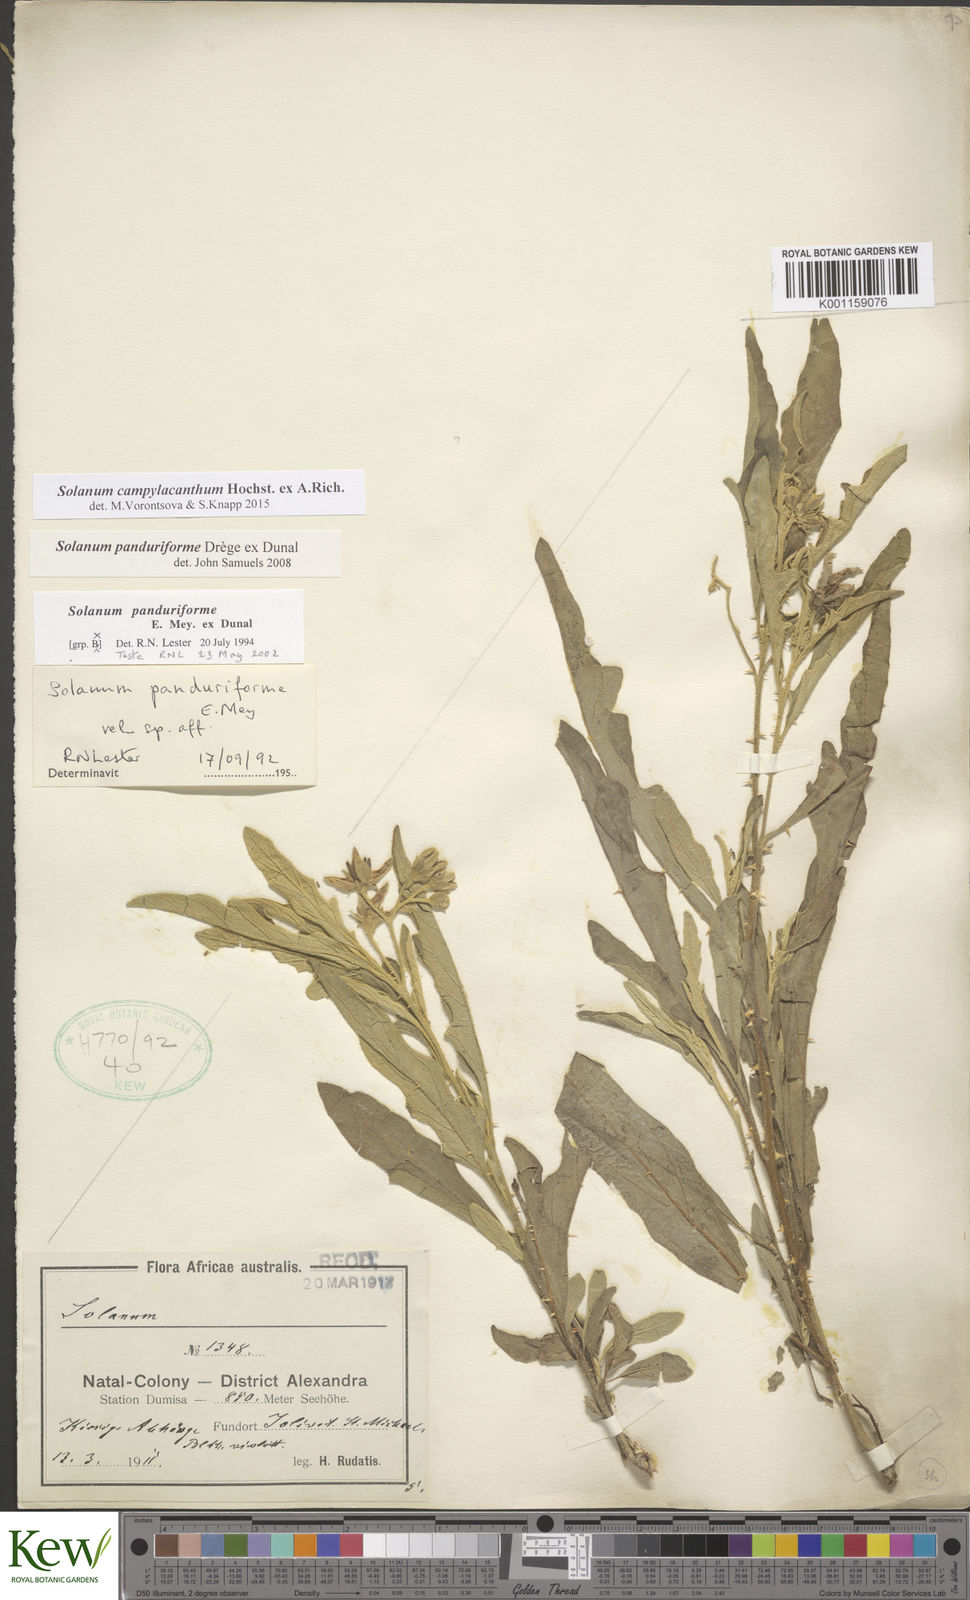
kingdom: Plantae
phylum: Tracheophyta
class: Magnoliopsida
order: Solanales
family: Solanaceae
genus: Solanum
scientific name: Solanum campylacanthum
